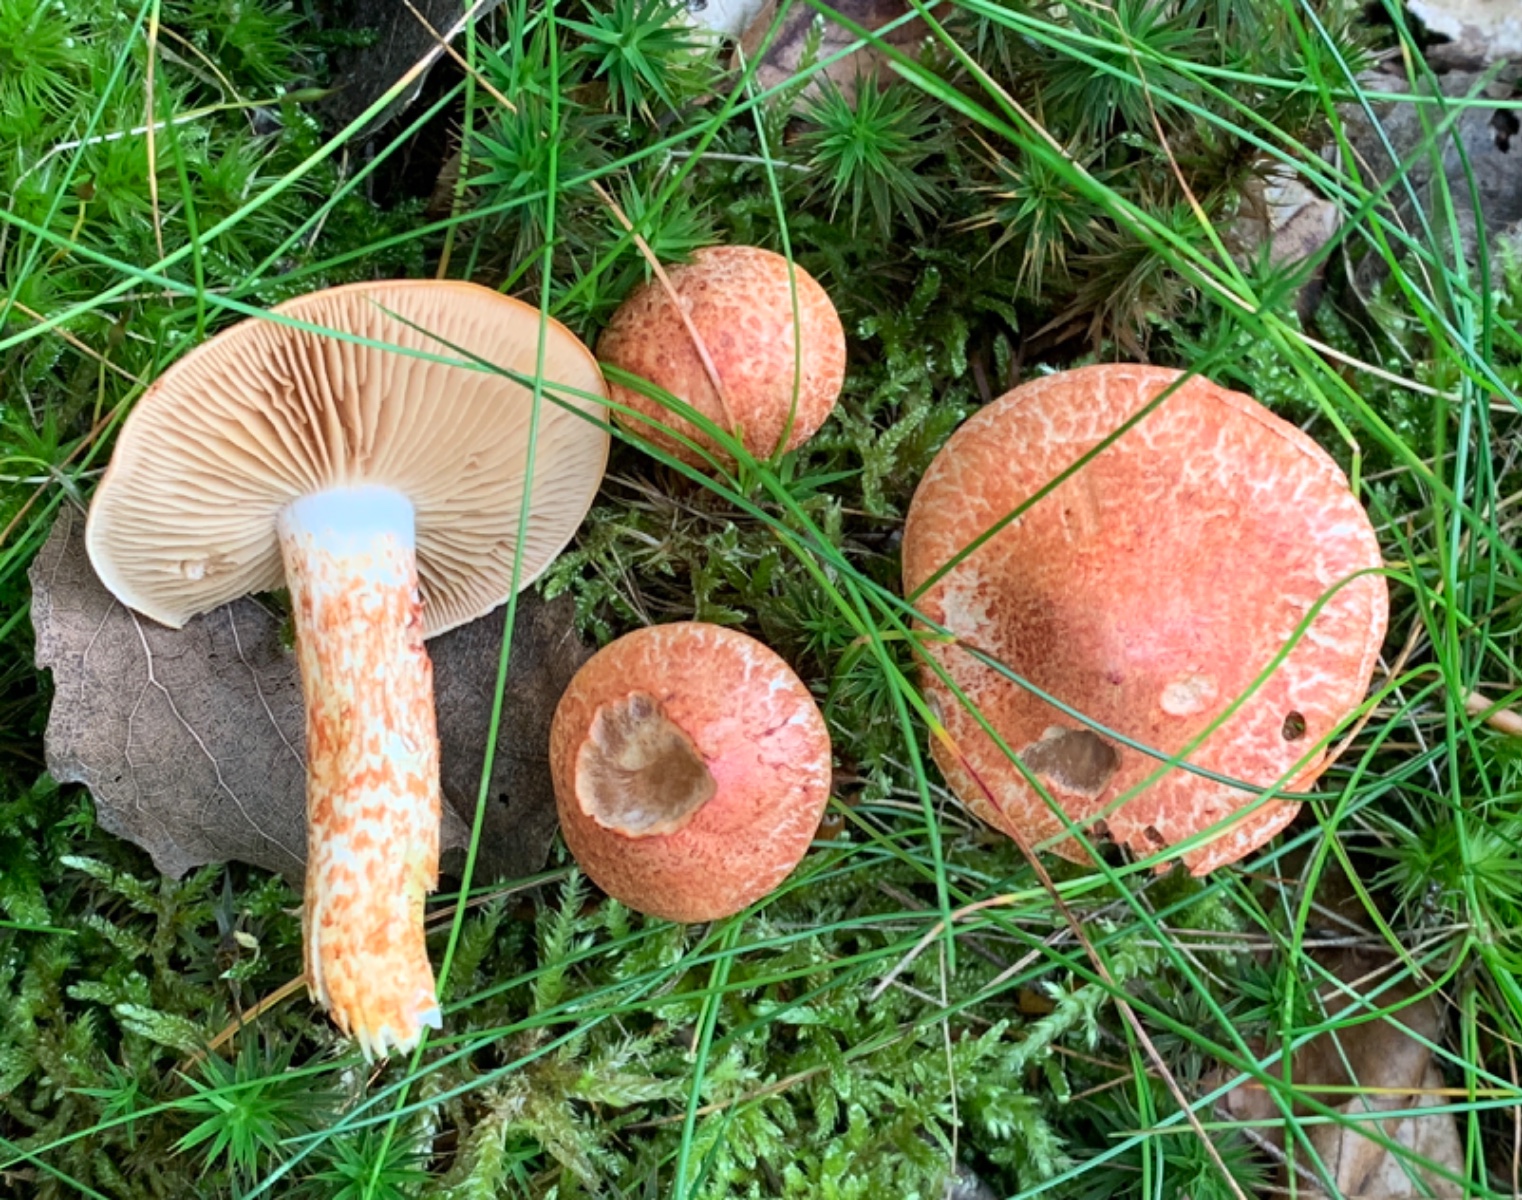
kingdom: Fungi
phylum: Basidiomycota
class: Agaricomycetes
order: Agaricales
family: Cortinariaceae
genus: Cortinarius
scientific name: Cortinarius bolaris
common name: cinnoberskællet slørhat
